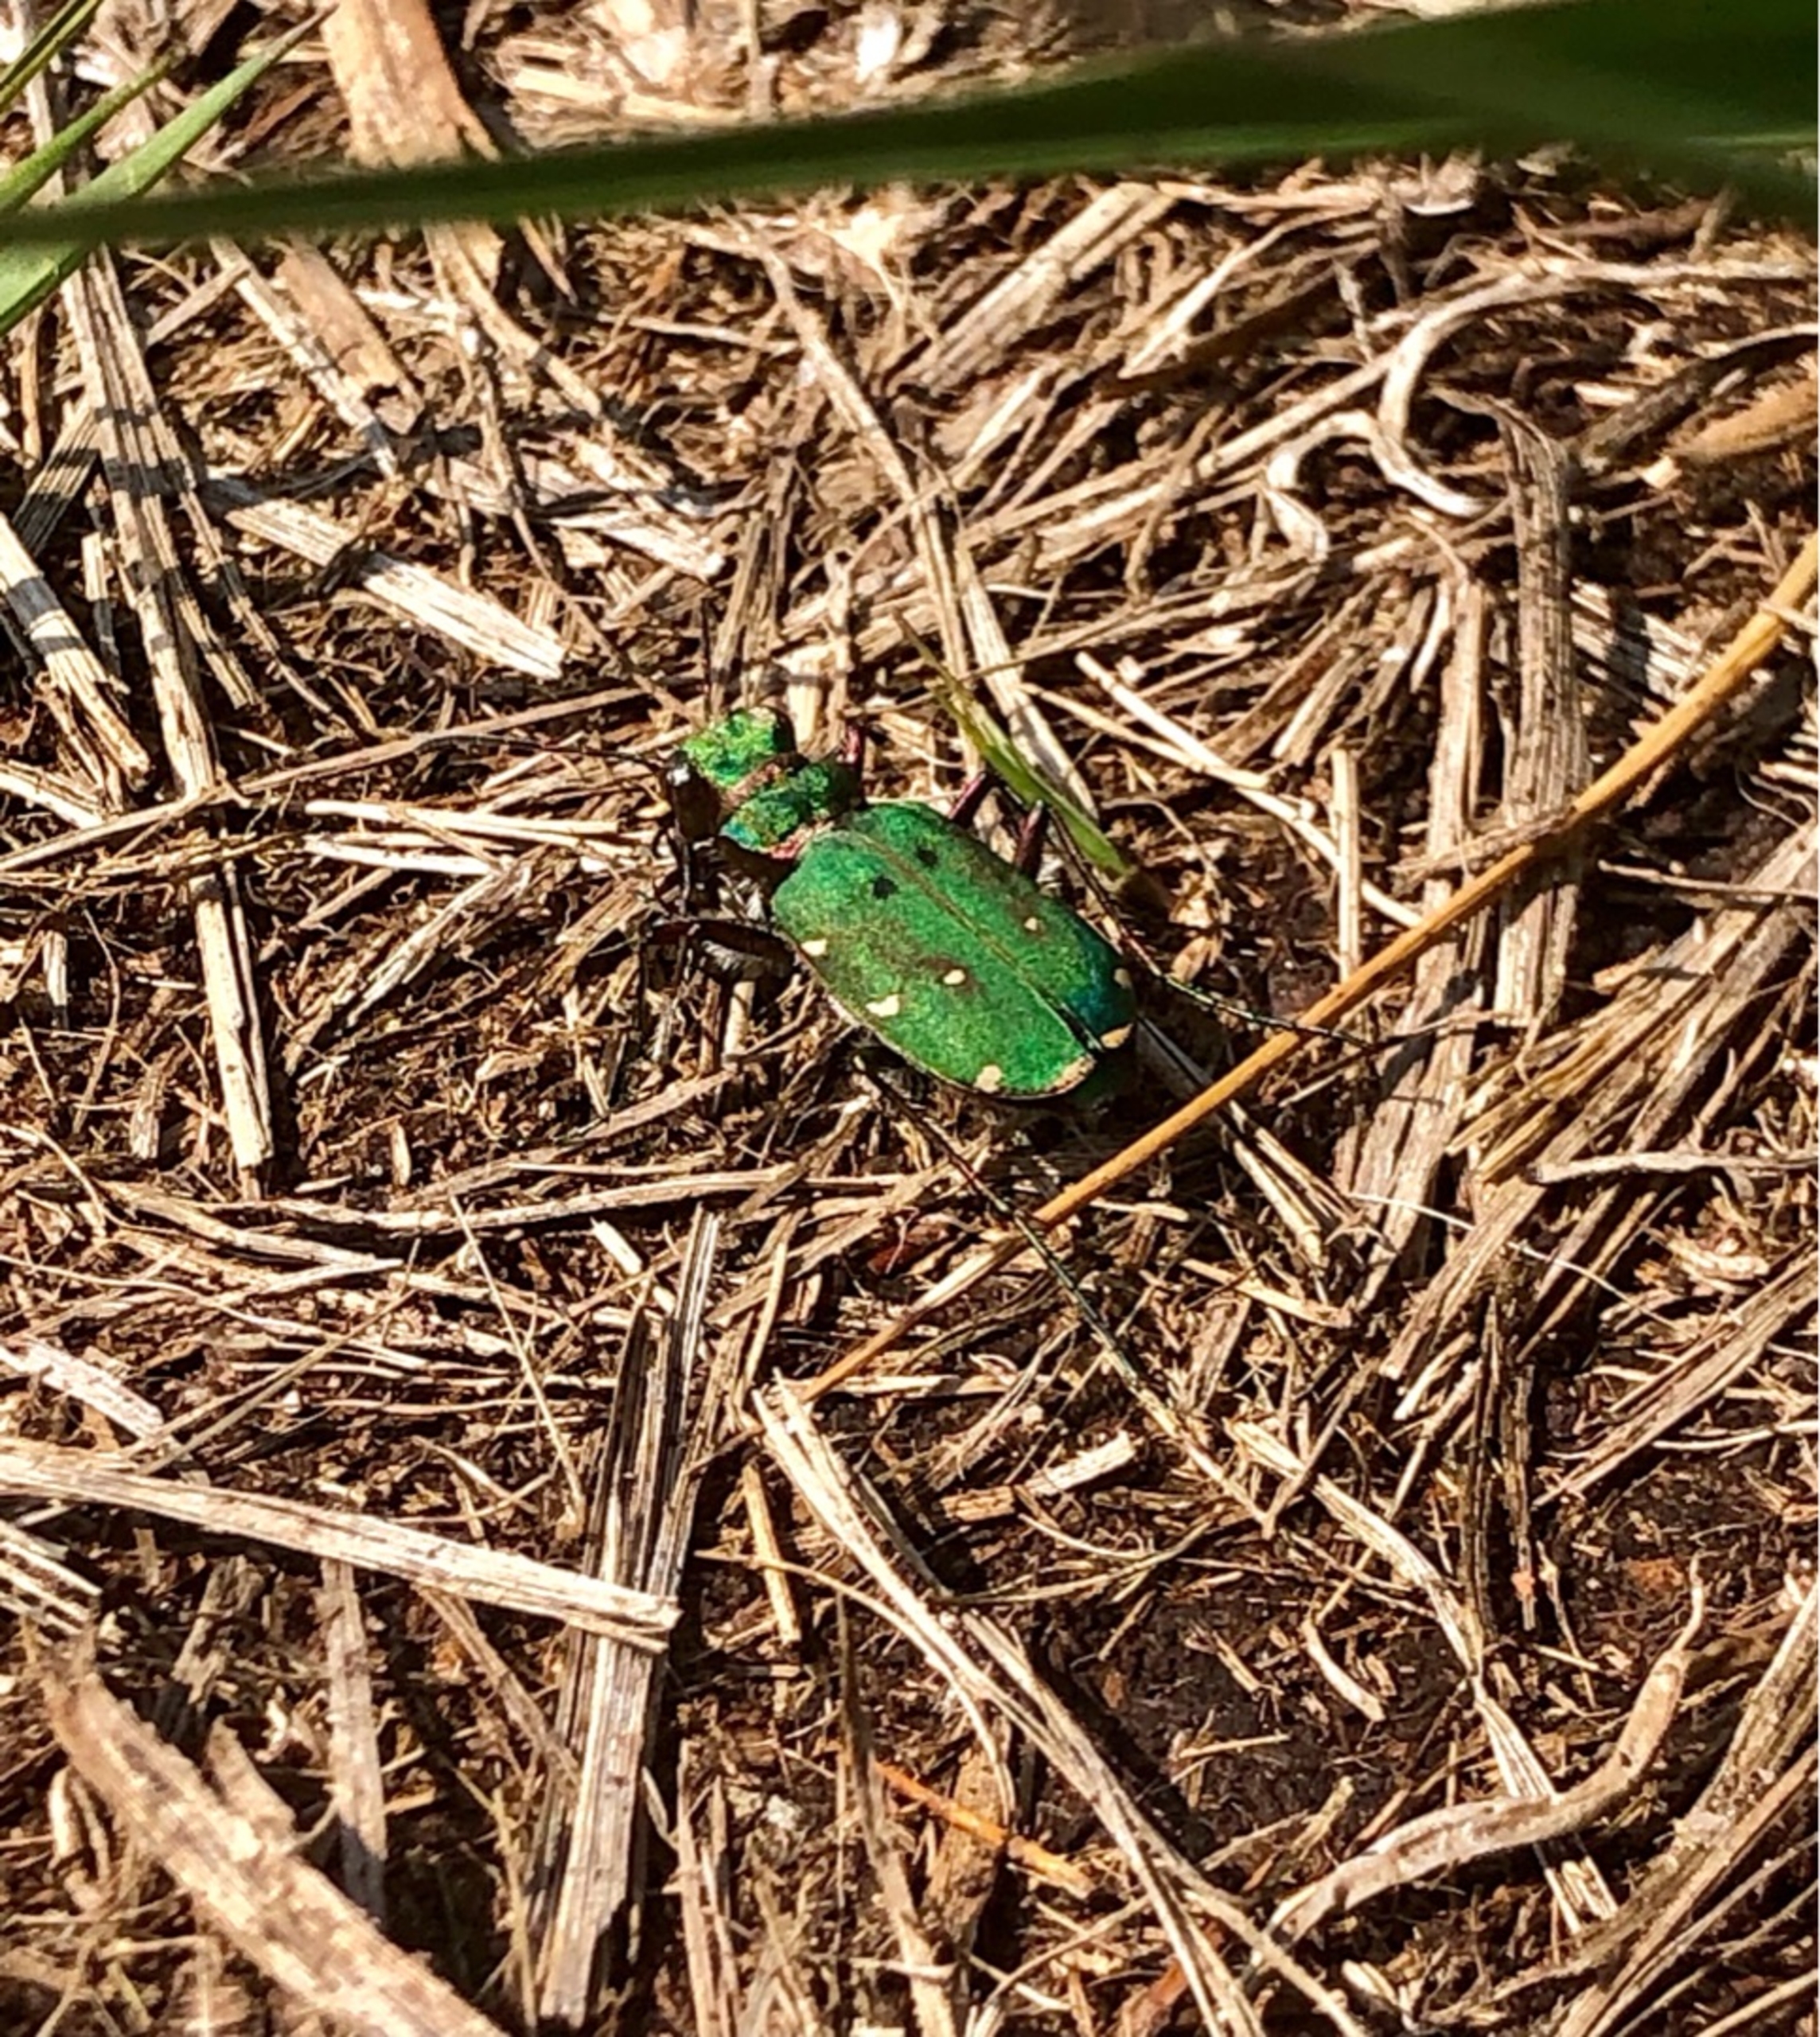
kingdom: Animalia
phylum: Arthropoda
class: Insecta
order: Coleoptera
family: Carabidae
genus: Cicindela
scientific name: Cicindela campestris
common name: Grøn sandspringer
